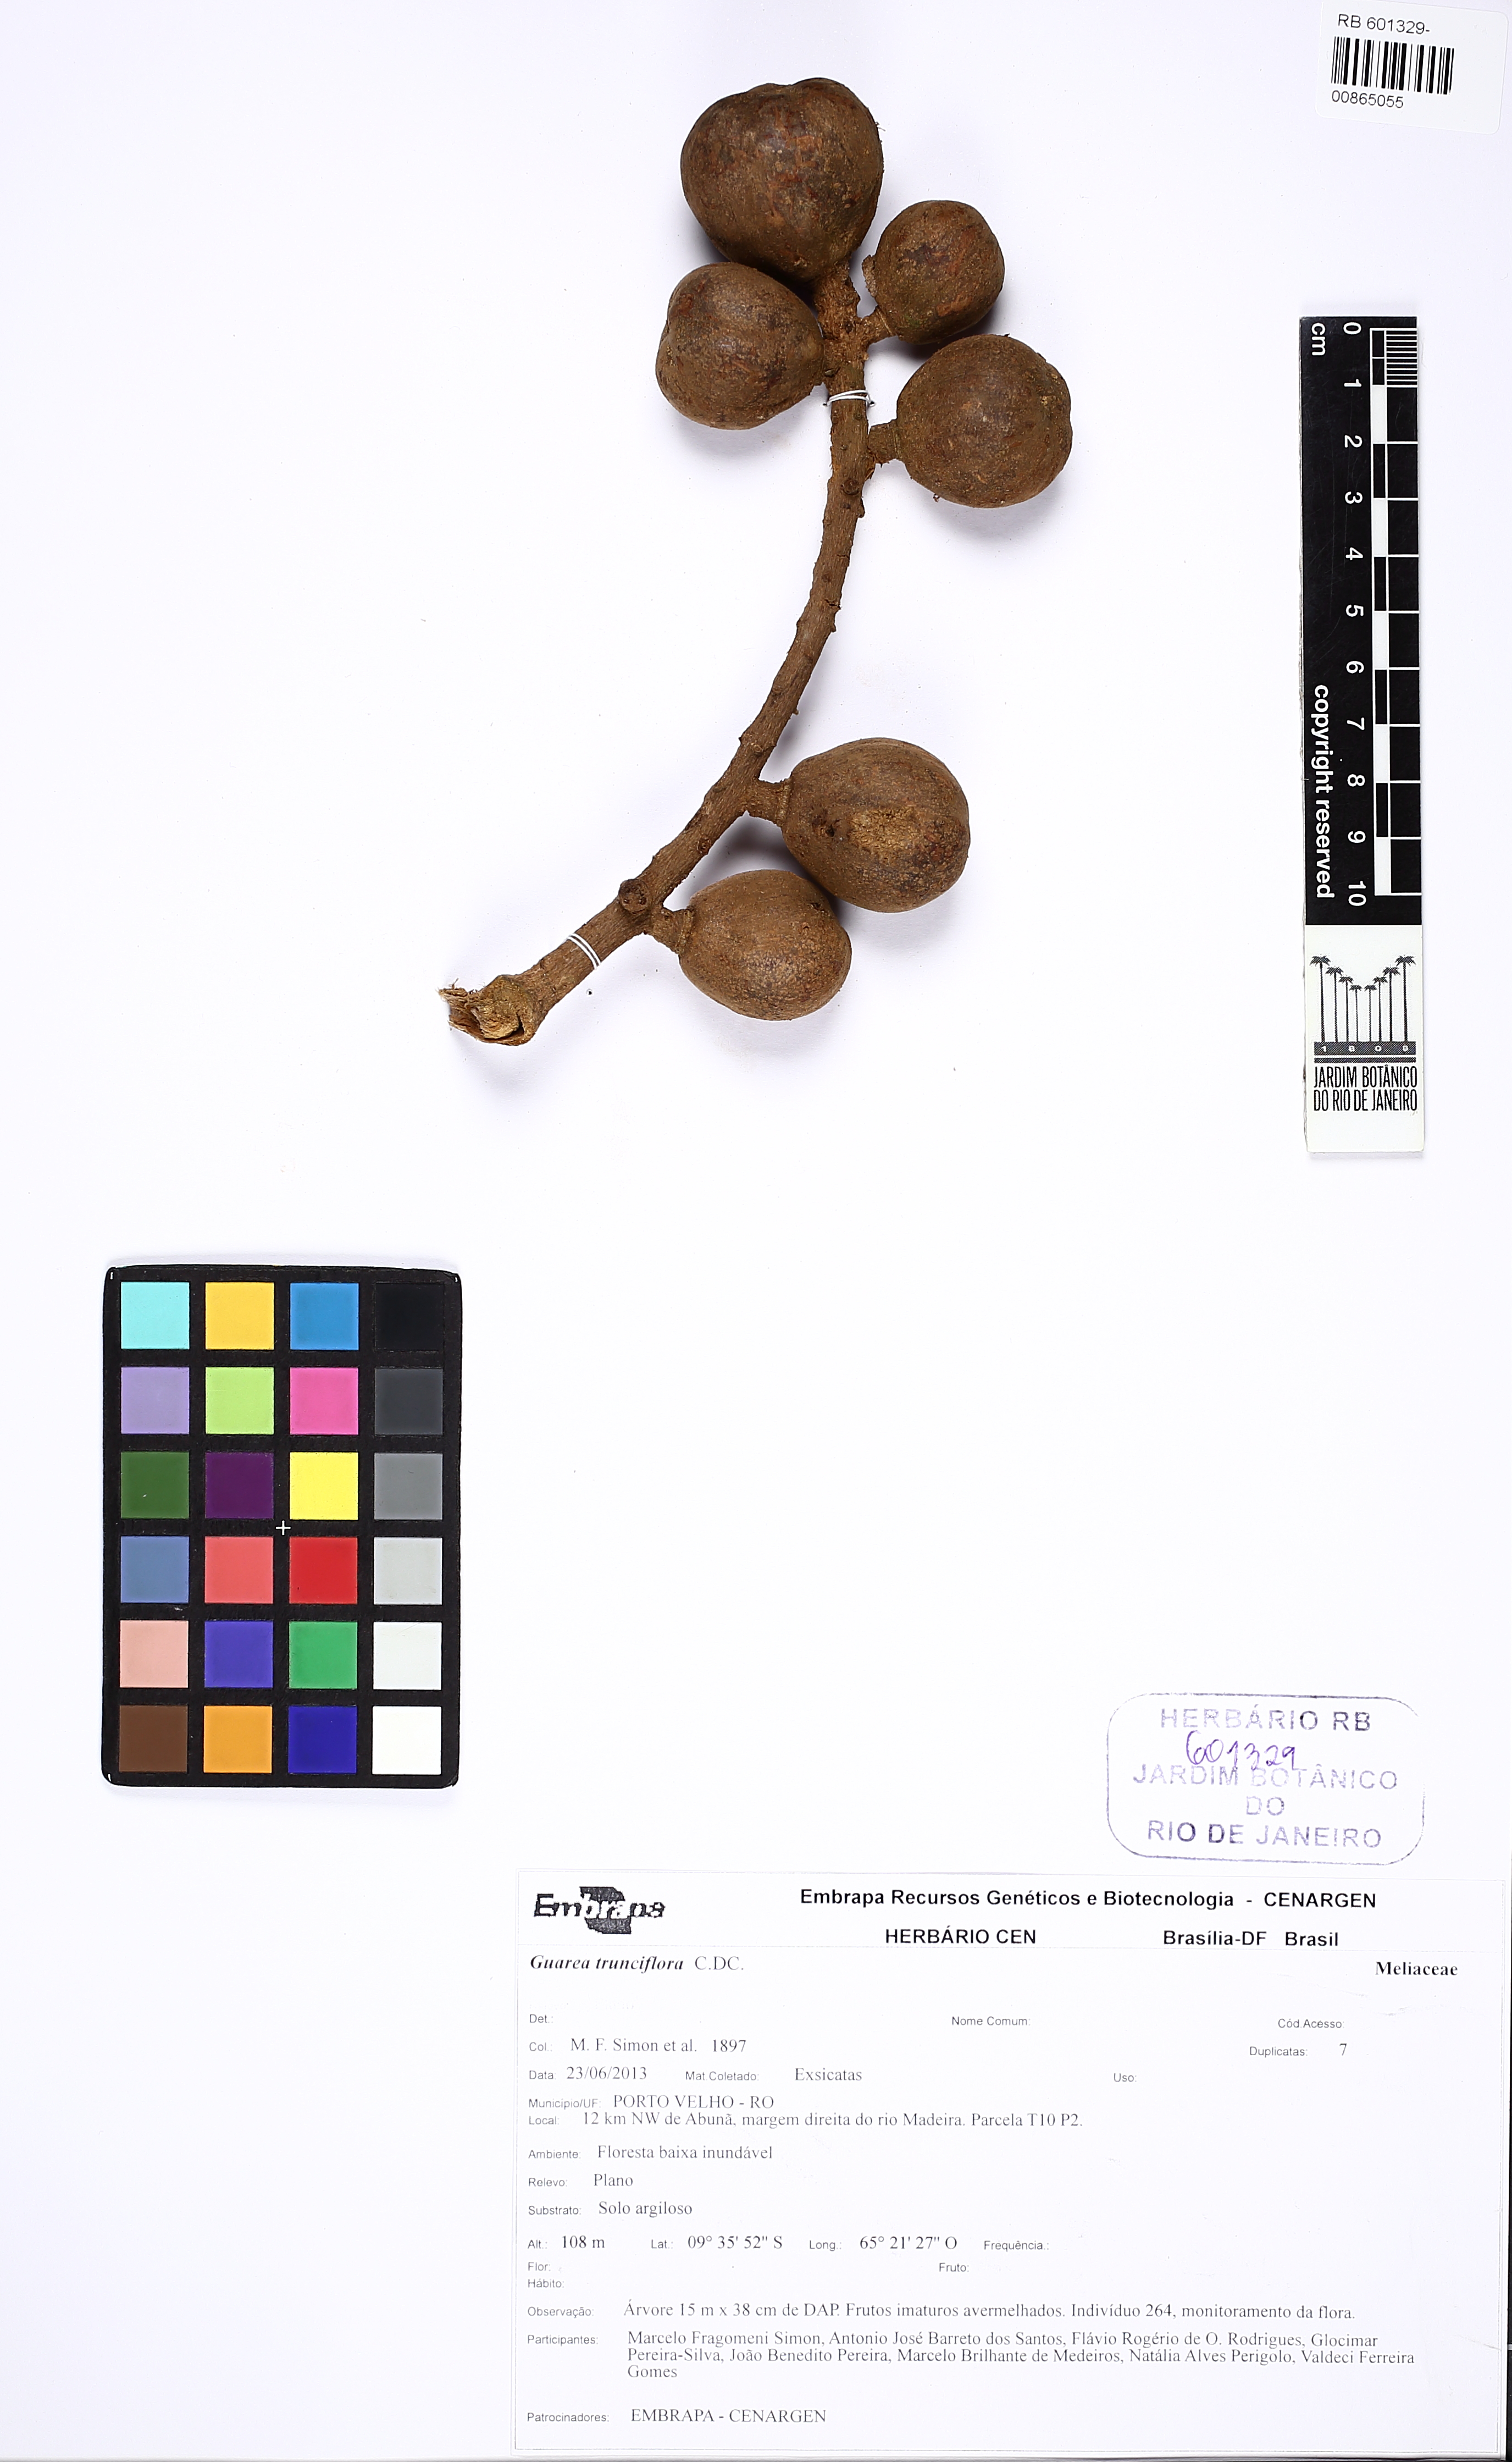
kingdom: Plantae
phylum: Tracheophyta
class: Magnoliopsida
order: Sapindales
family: Meliaceae
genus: Guarea
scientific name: Guarea trunciflora
